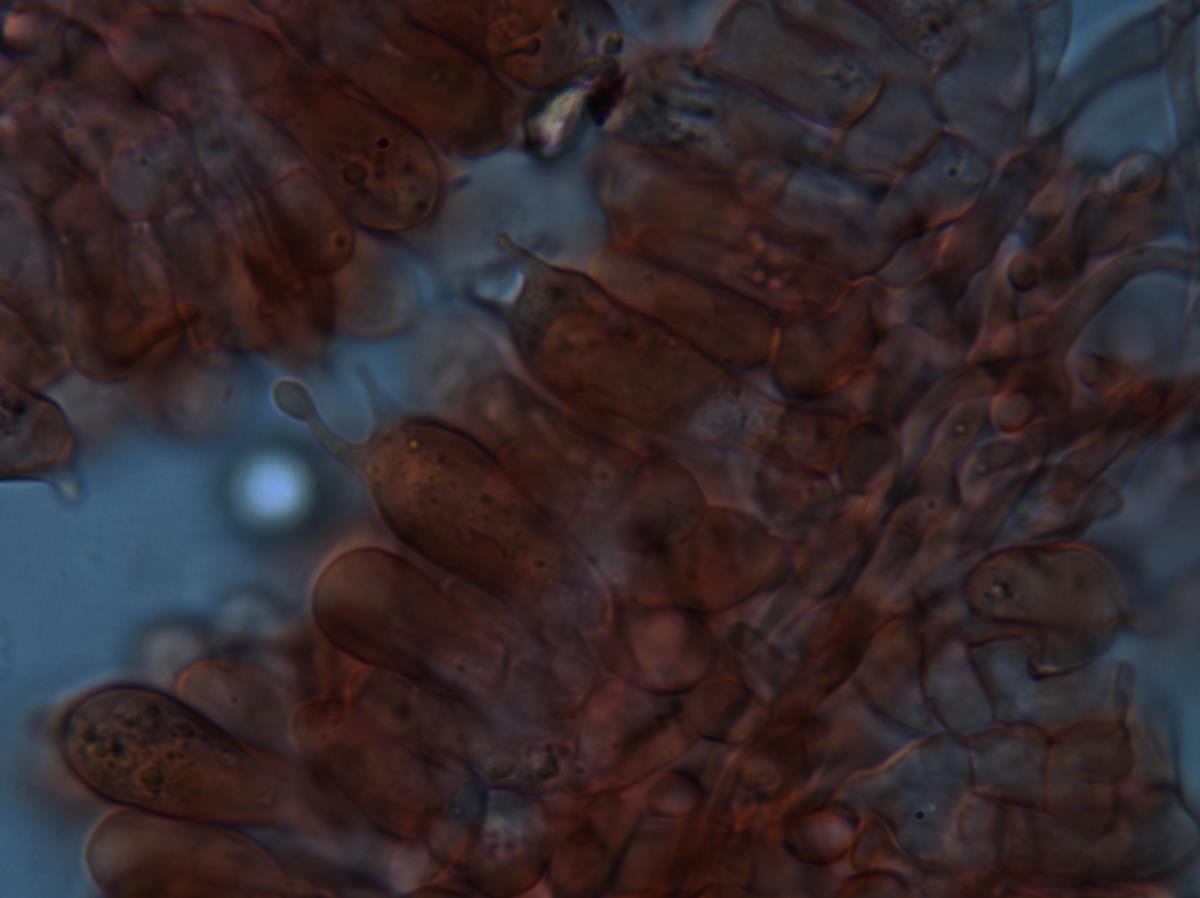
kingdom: Fungi
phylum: Basidiomycota
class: Agaricomycetes
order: Russulales
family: Russulaceae
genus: Zelleromyces
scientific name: Zelleromyces
